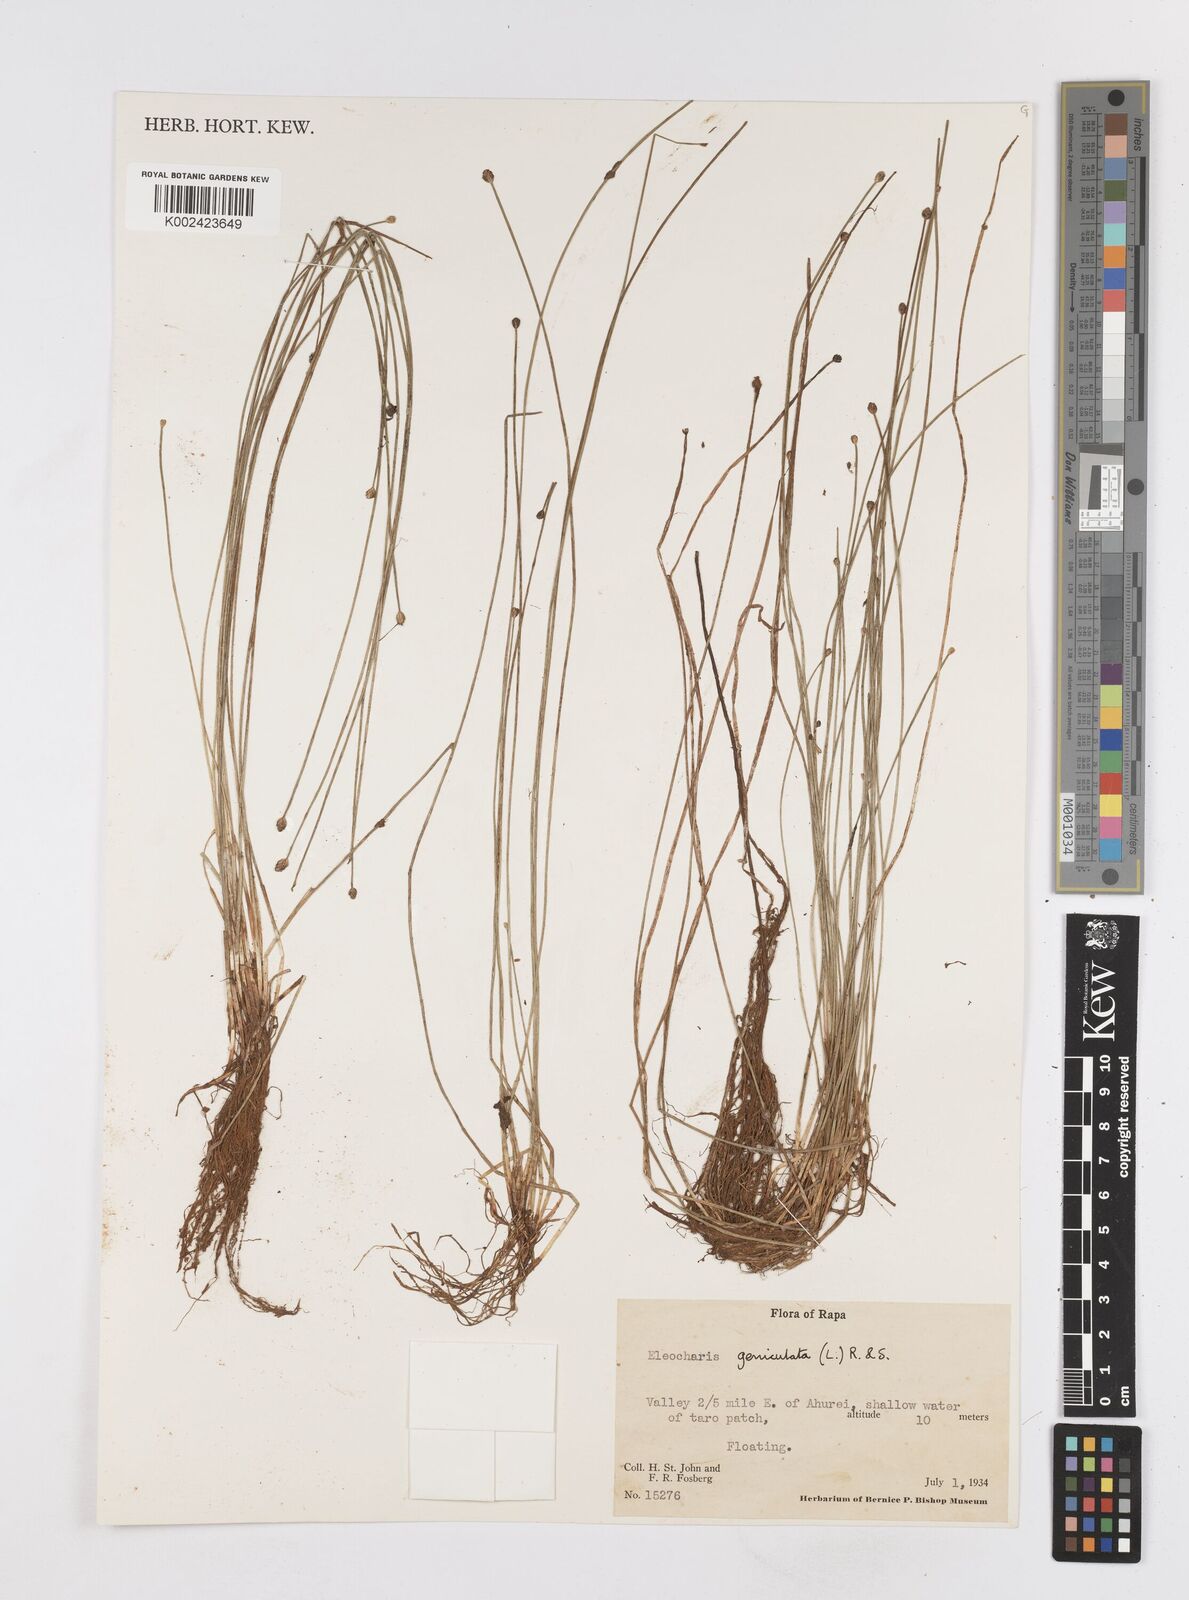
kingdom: Plantae
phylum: Tracheophyta
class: Liliopsida
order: Poales
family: Cyperaceae
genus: Eleocharis
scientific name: Eleocharis geniculata
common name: Canada spikesedge
